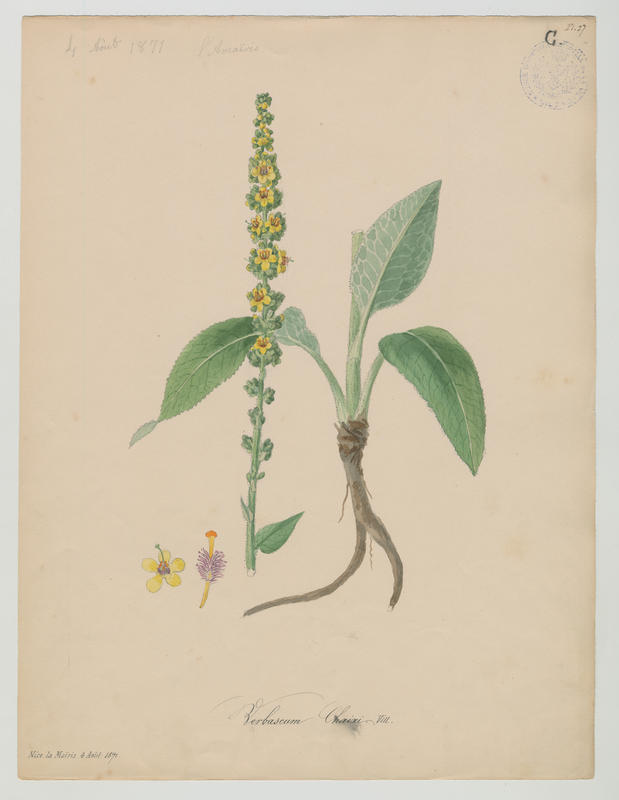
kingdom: Plantae
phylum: Tracheophyta
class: Magnoliopsida
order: Lamiales
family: Scrophulariaceae
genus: Verbascum
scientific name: Verbascum chaixii
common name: Nettle-leaved mullein
